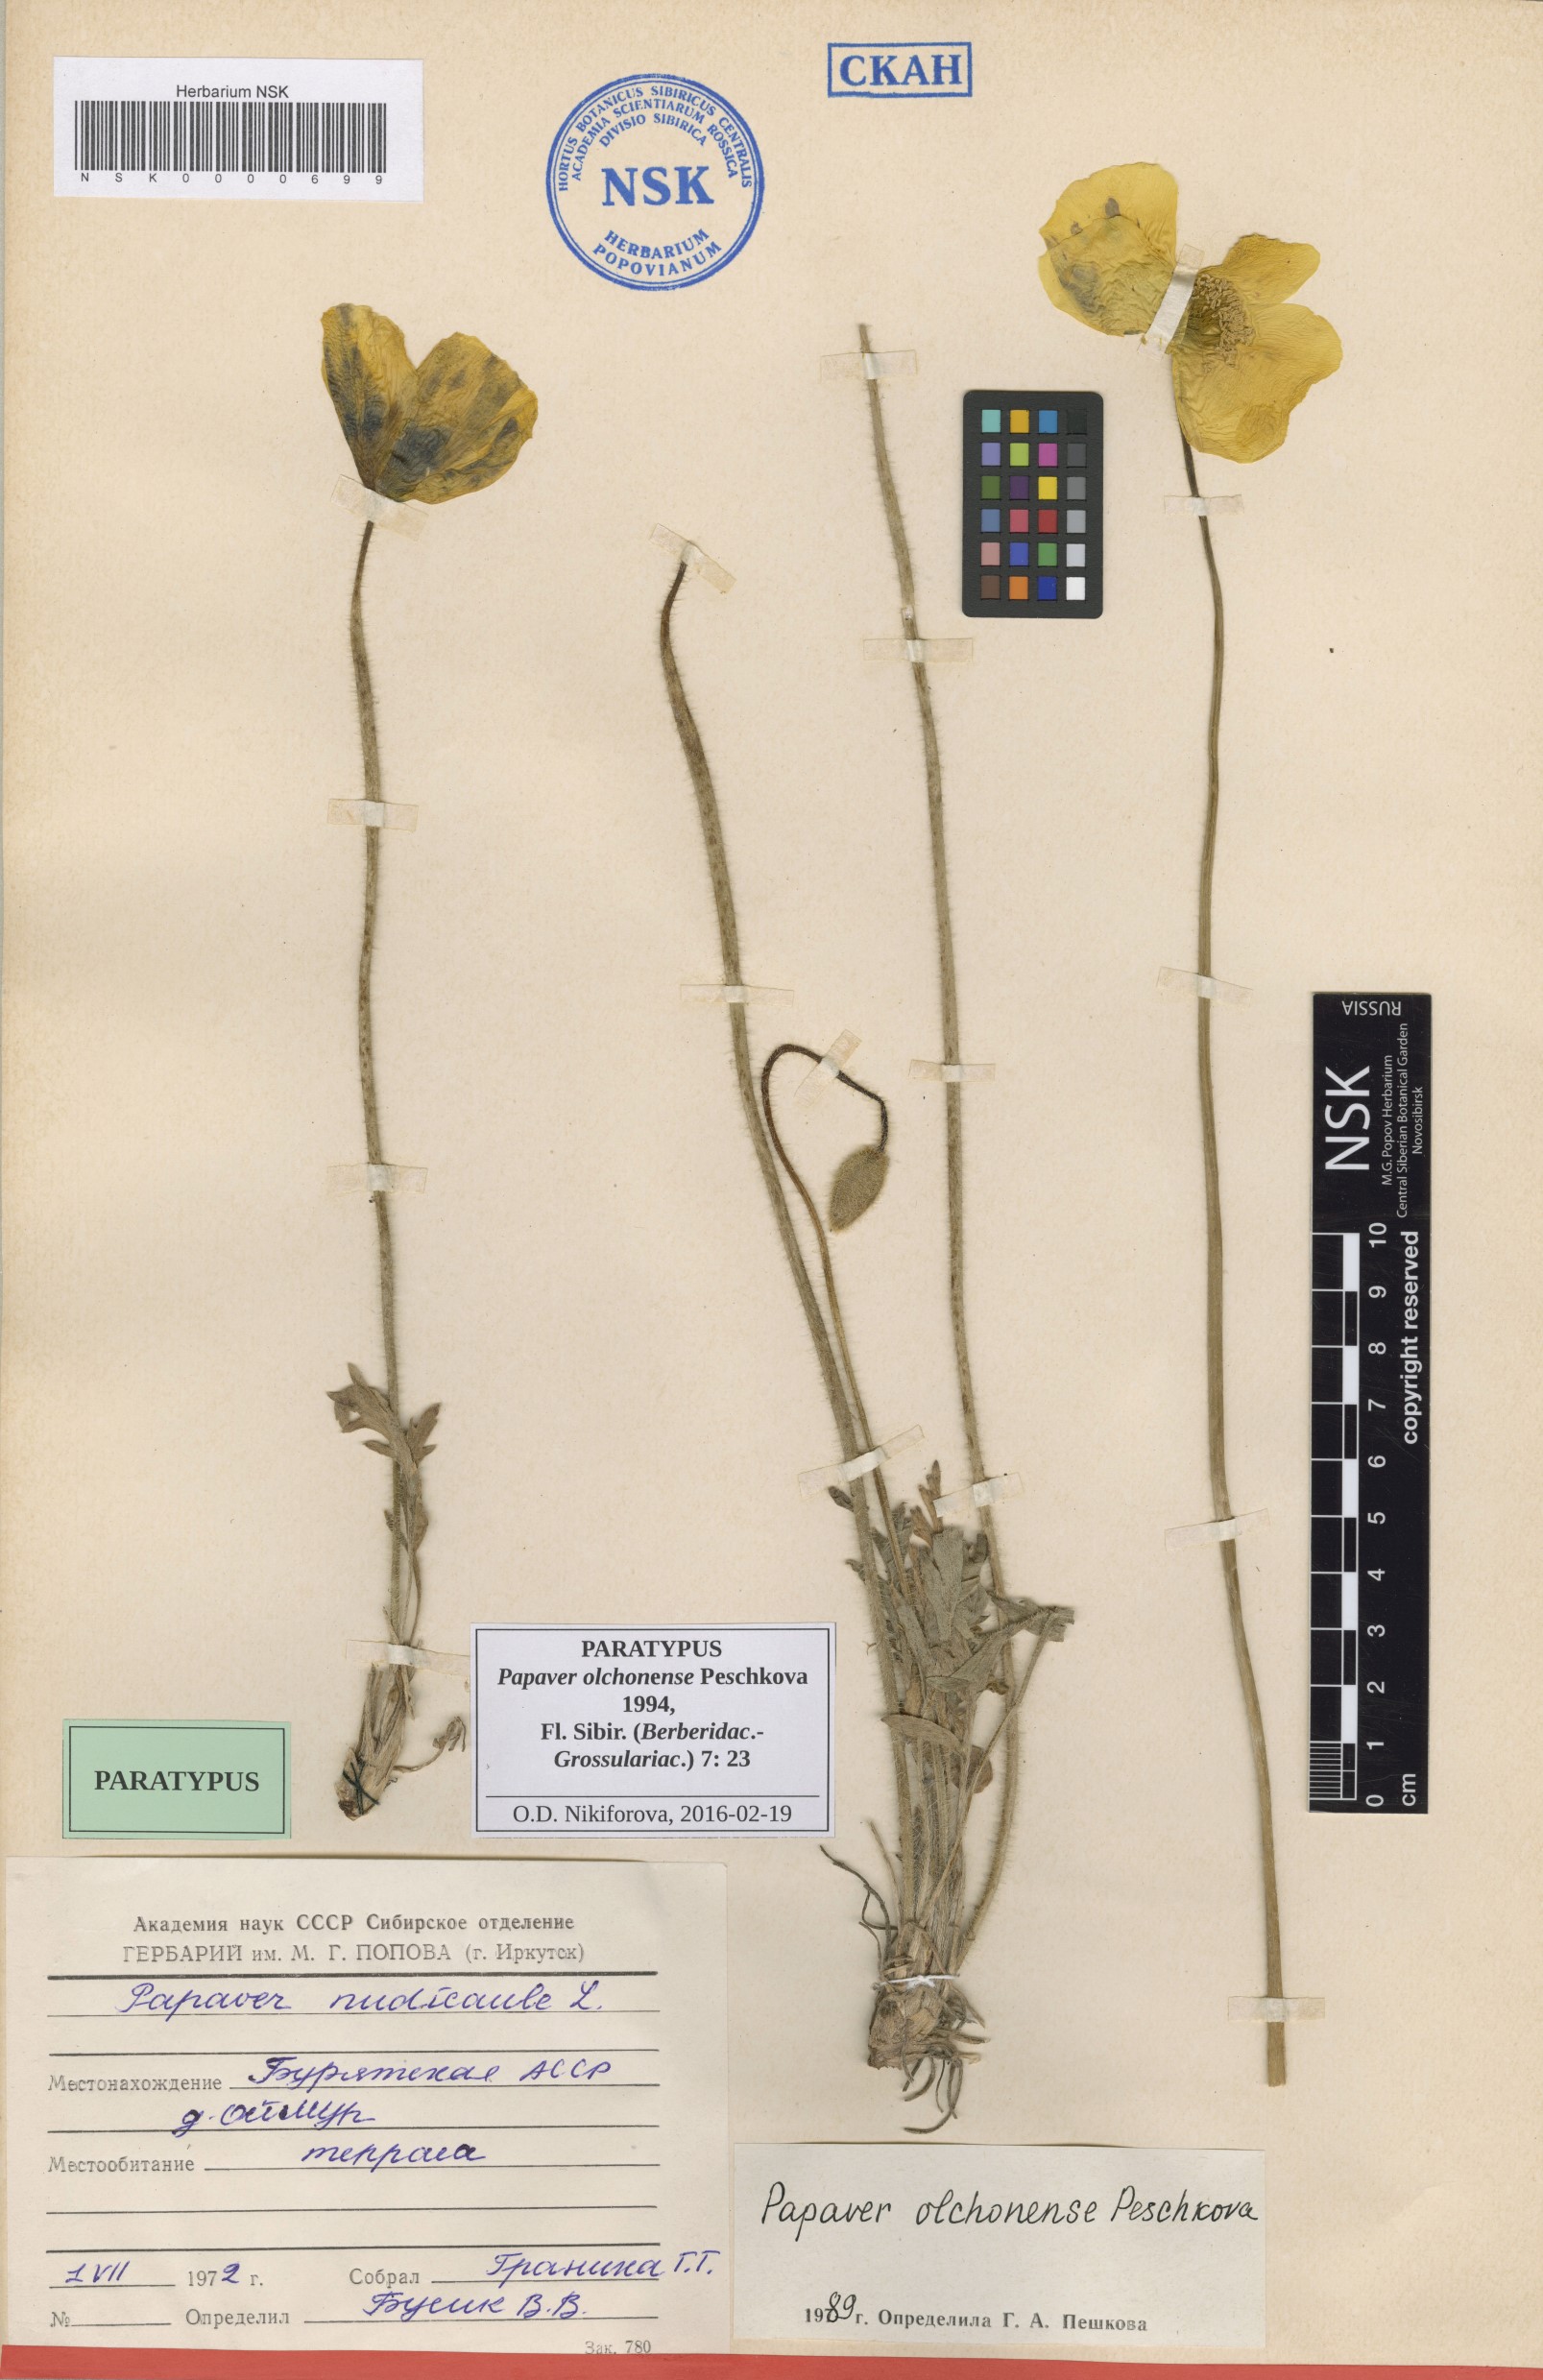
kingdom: Plantae
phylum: Tracheophyta
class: Magnoliopsida
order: Ranunculales
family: Papaveraceae
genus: Papaver
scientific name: Papaver olchonense
